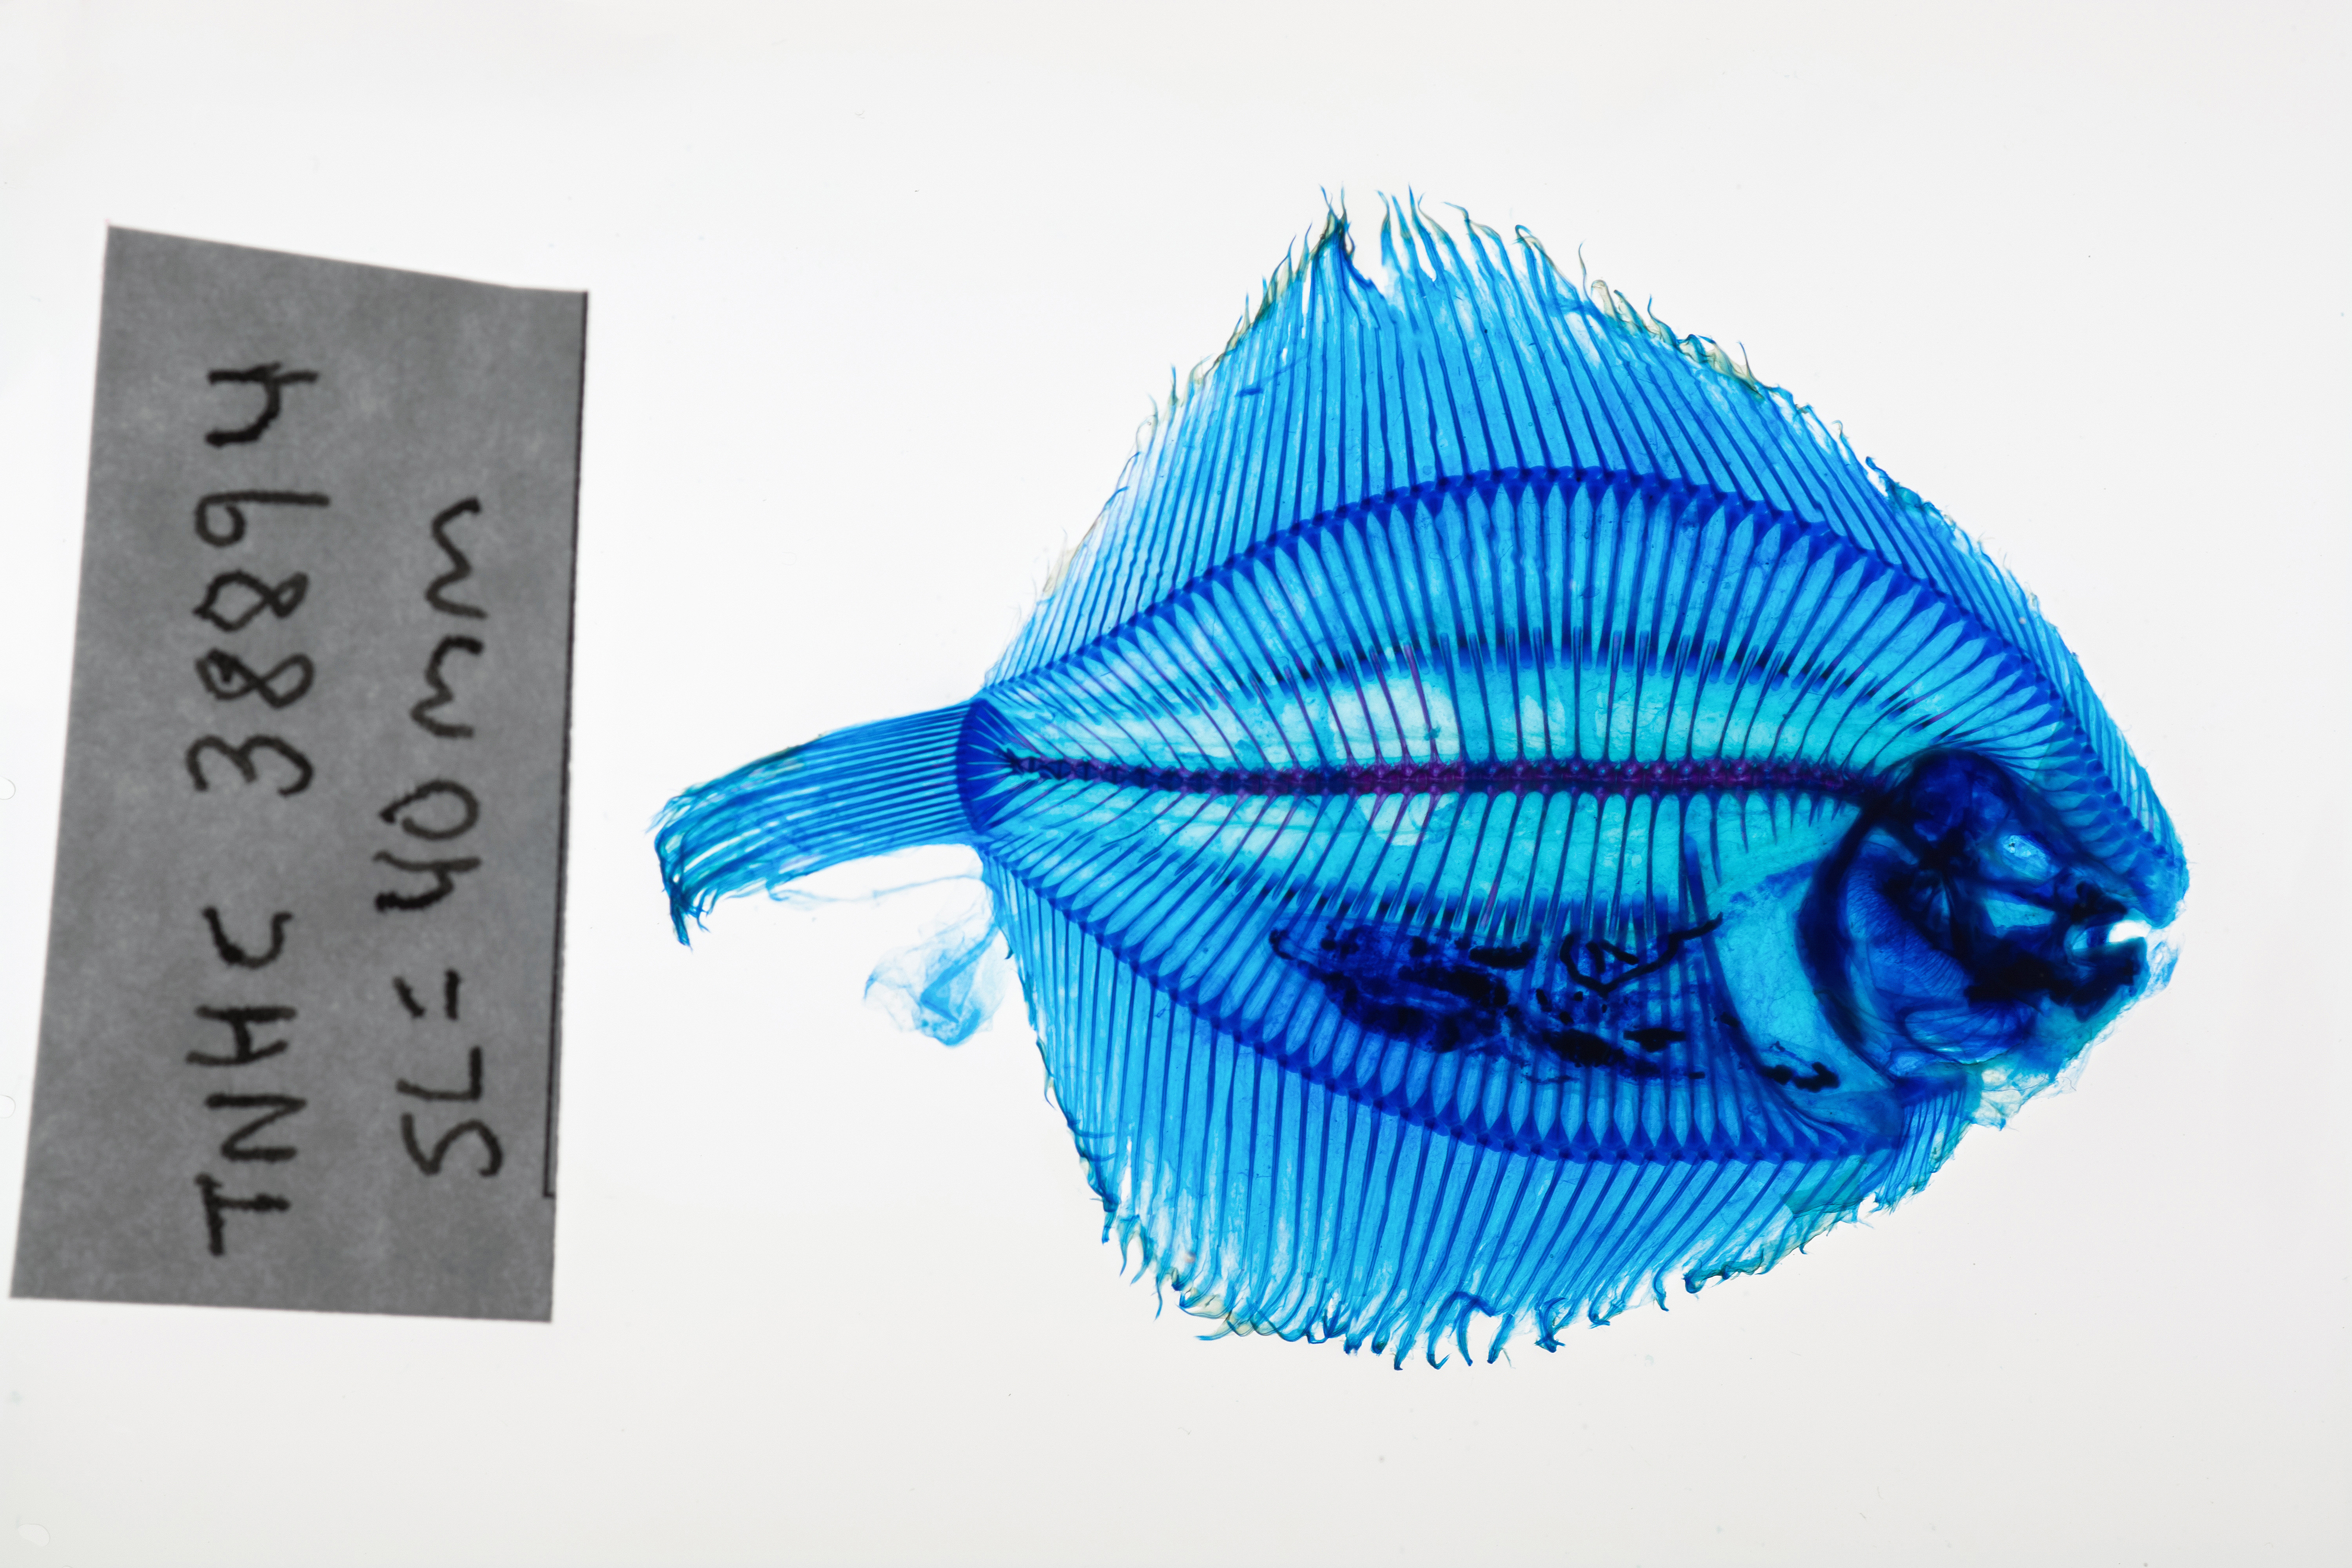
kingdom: Animalia
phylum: Chordata
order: Pleuronectiformes
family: Achiridae
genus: Gymnachirus
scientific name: Gymnachirus texae
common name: Gulf of mexico fringed sole
